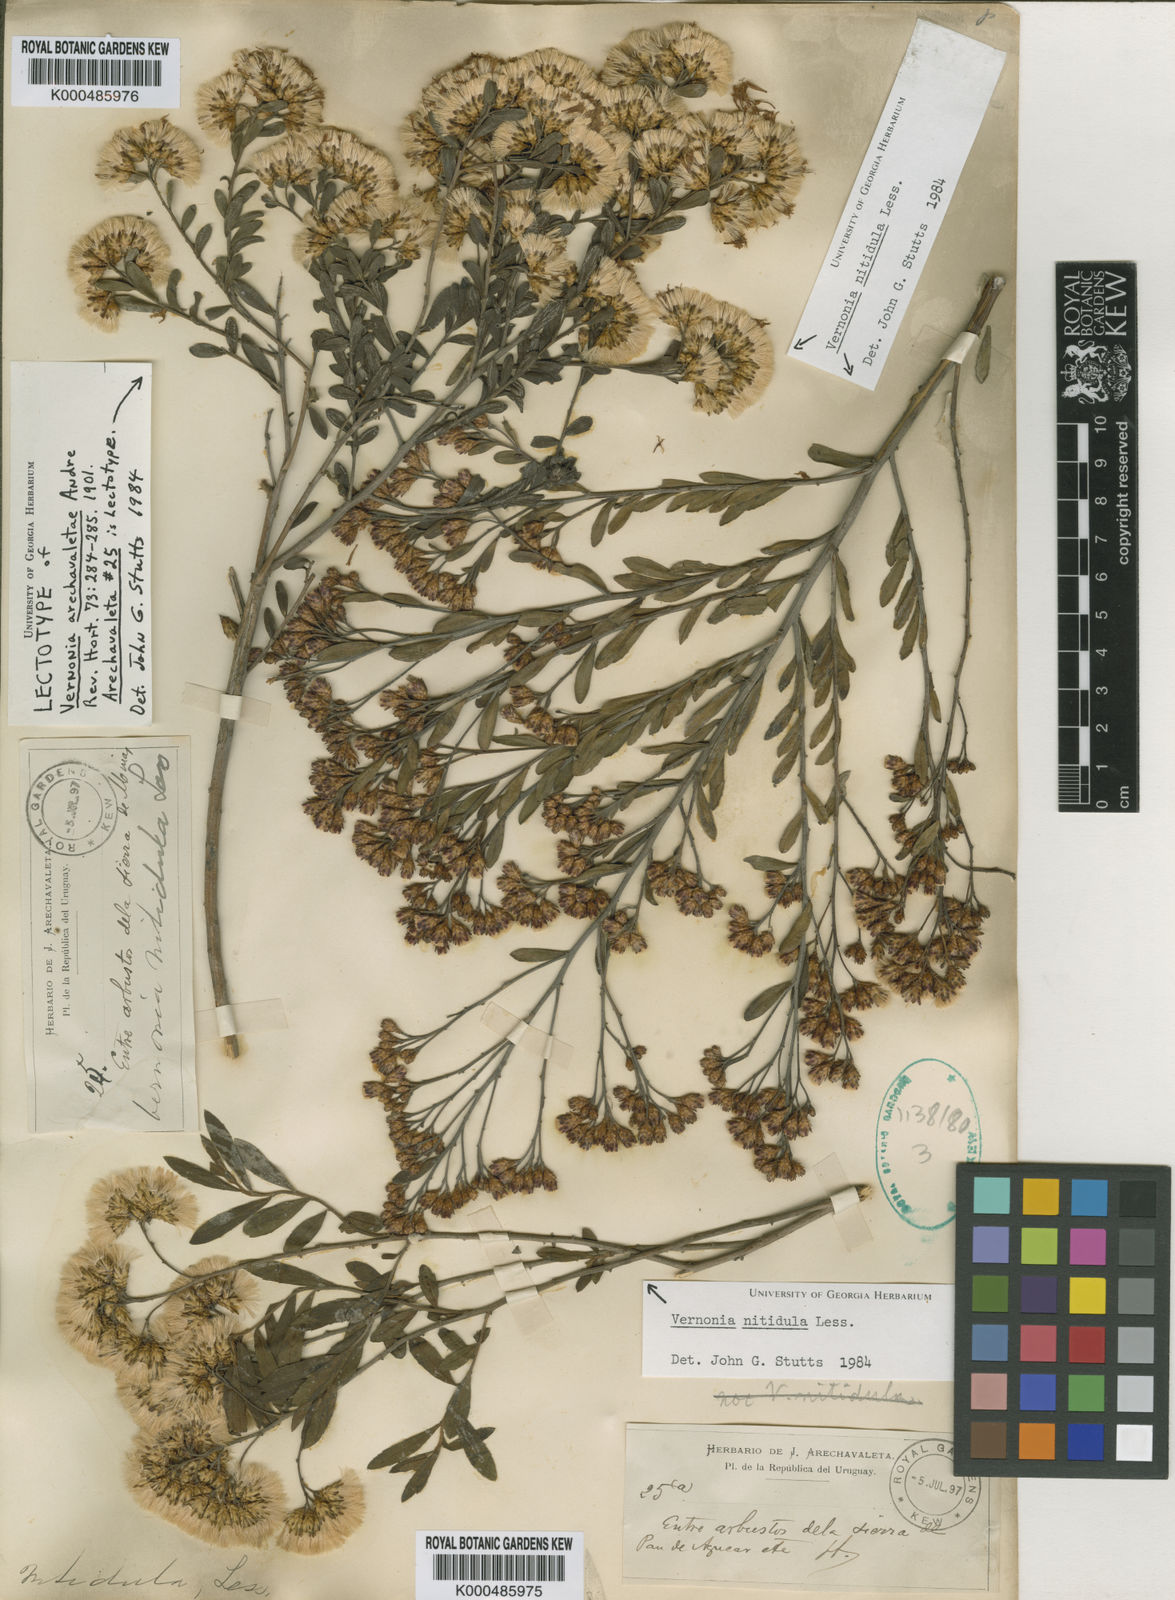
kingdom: Plantae
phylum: Tracheophyta
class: Magnoliopsida
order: Asterales
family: Asteraceae
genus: Vernonanthura
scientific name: Vernonanthura montevidensis
